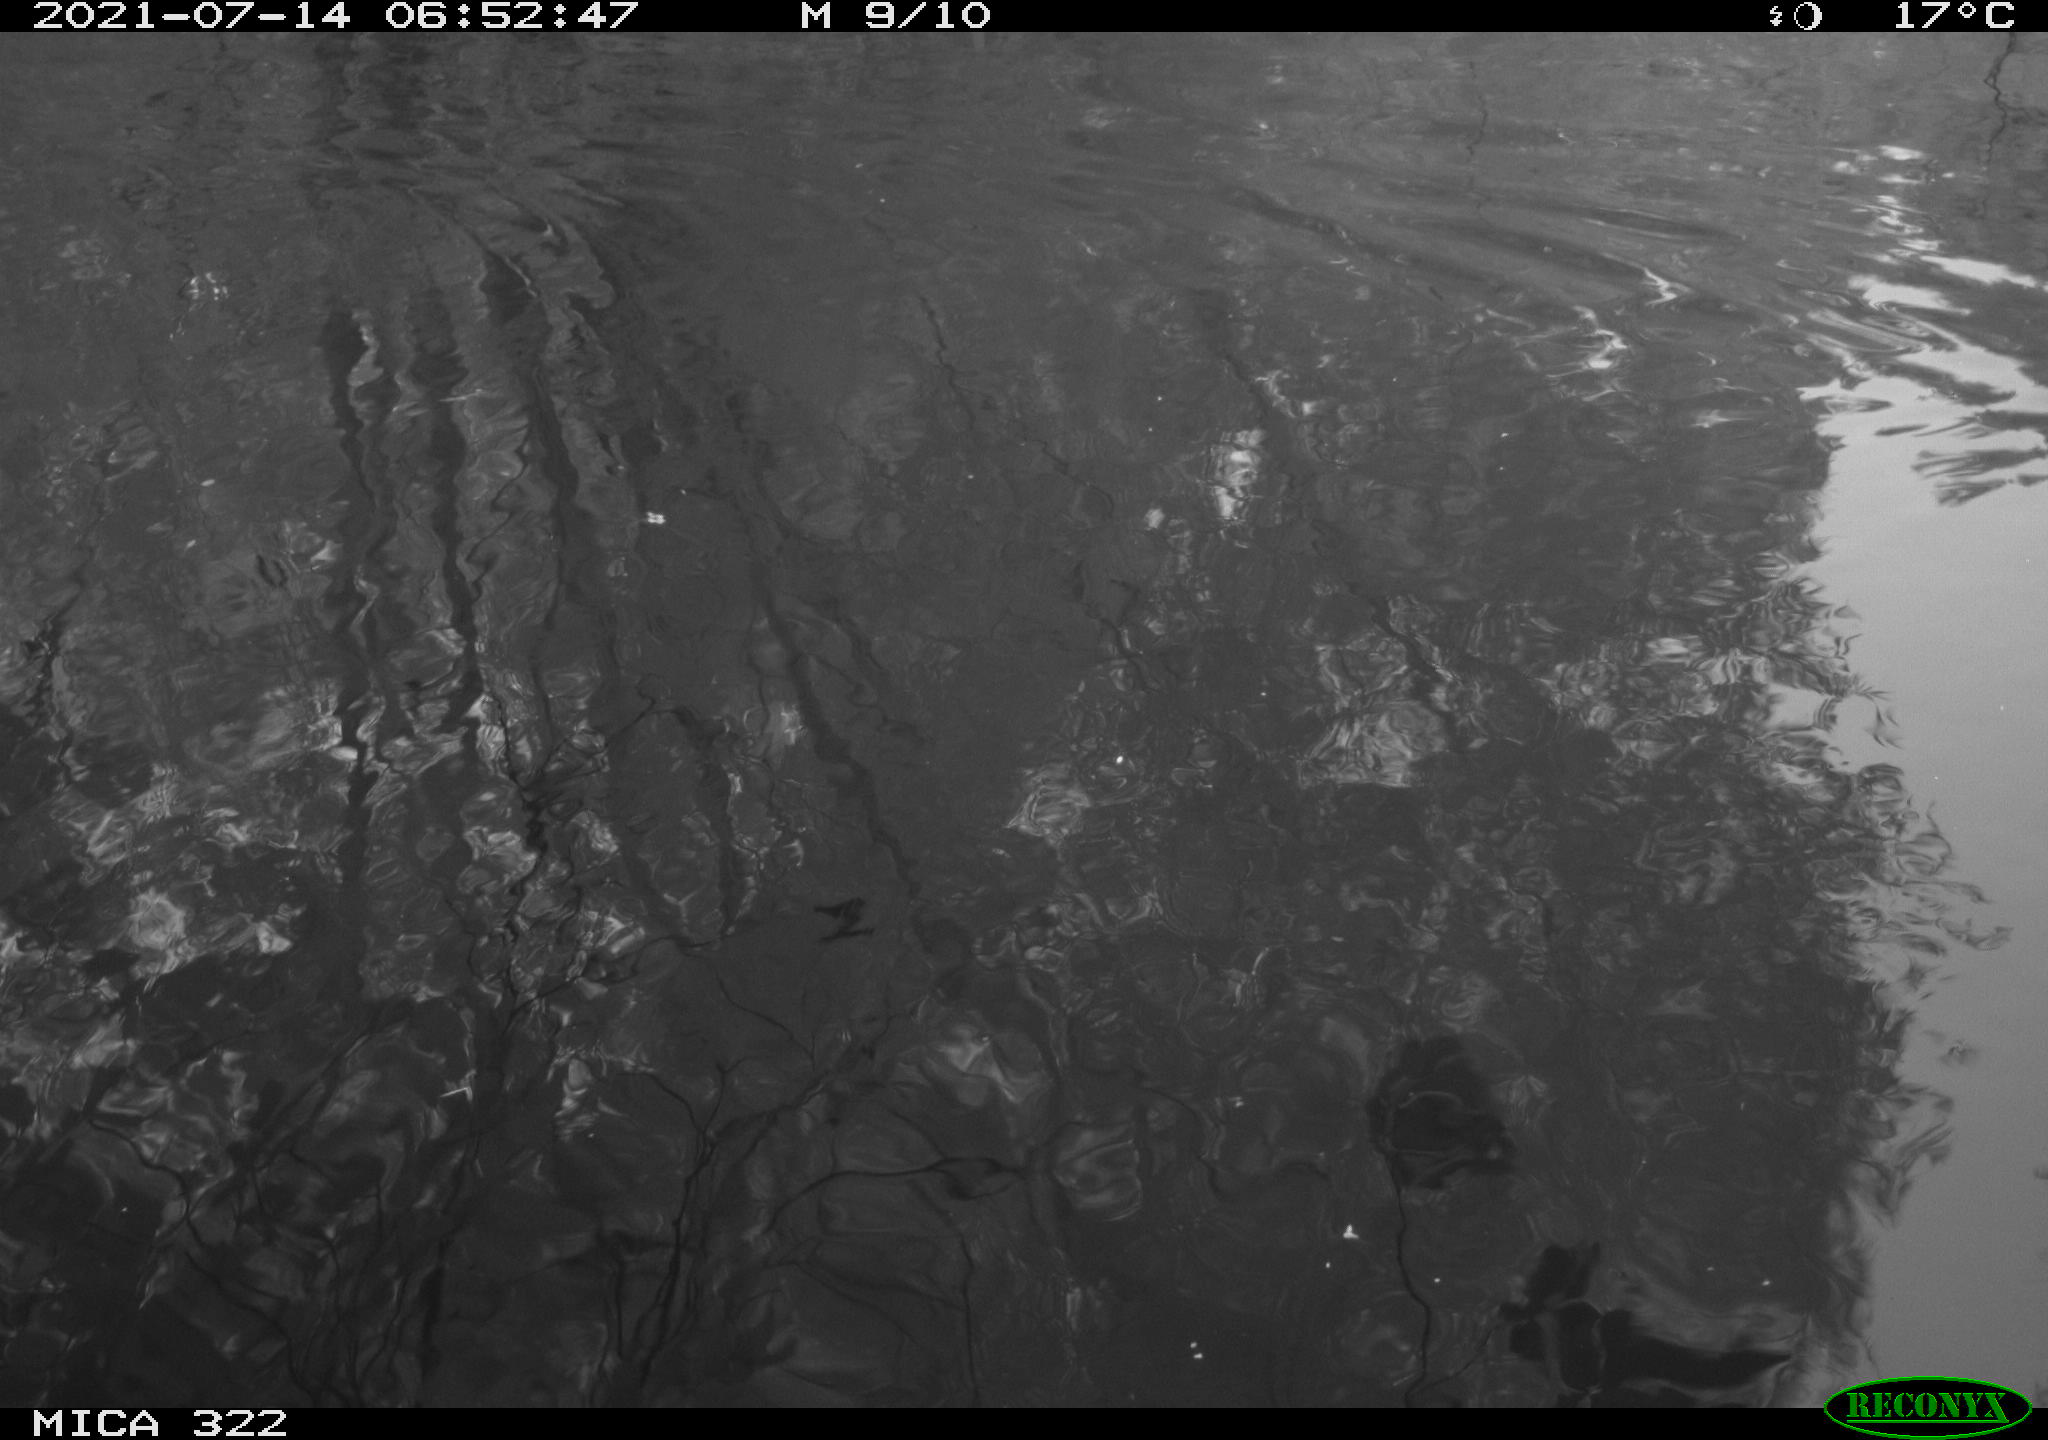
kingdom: Animalia
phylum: Chordata
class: Aves
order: Gruiformes
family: Rallidae
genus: Fulica
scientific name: Fulica atra
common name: Eurasian coot
